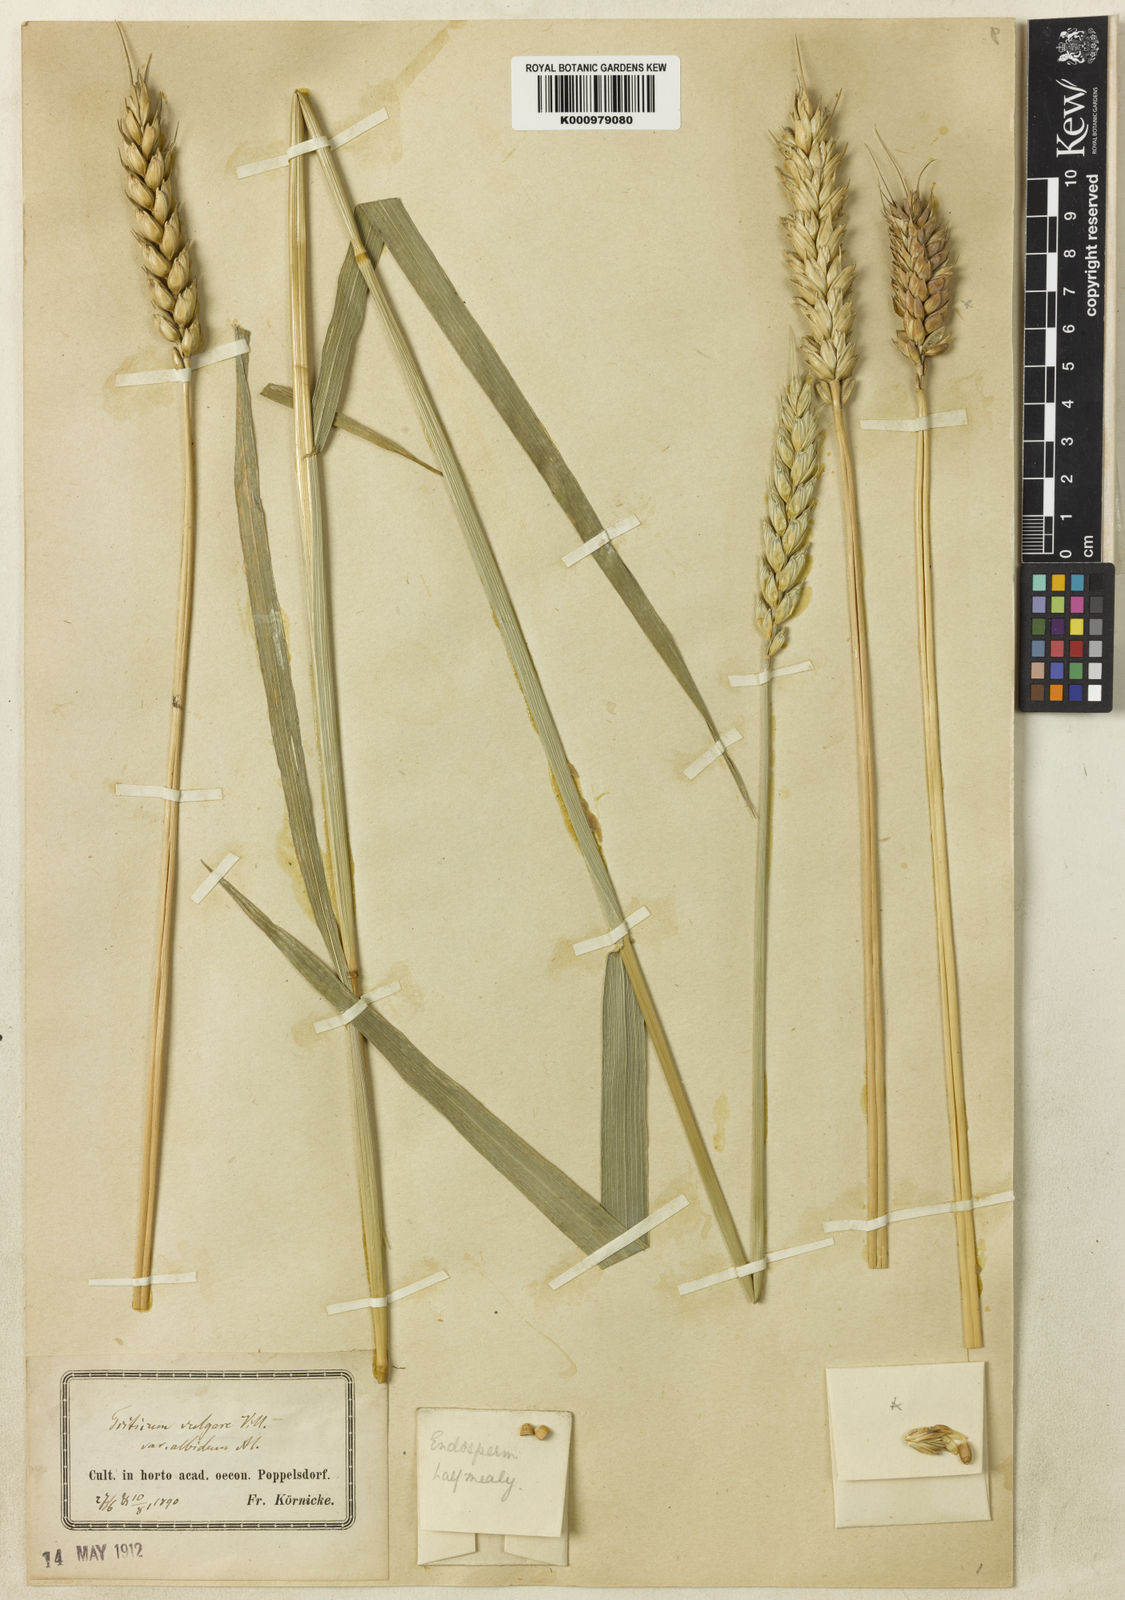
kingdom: Plantae
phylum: Tracheophyta
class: Liliopsida
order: Poales
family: Poaceae
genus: Triticum
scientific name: Triticum aestivum
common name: Common wheat
